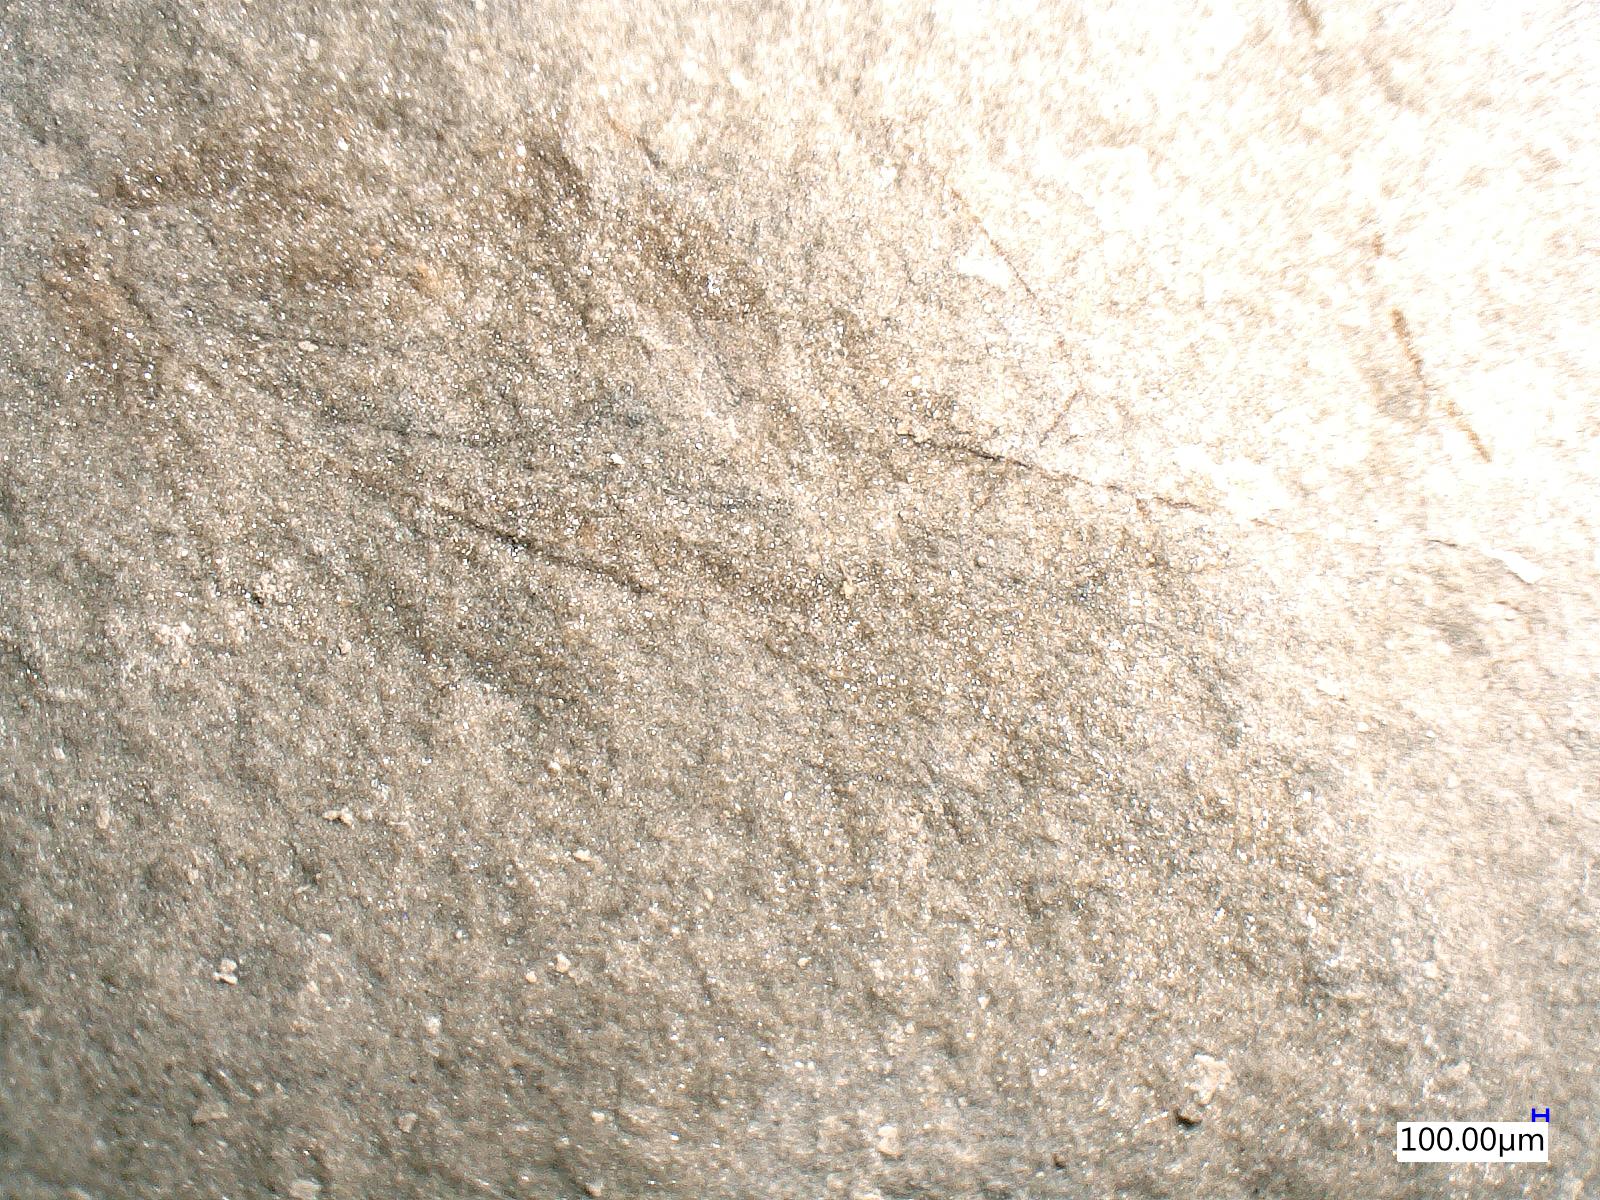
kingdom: Animalia
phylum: Arthropoda
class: Insecta
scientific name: Insecta
